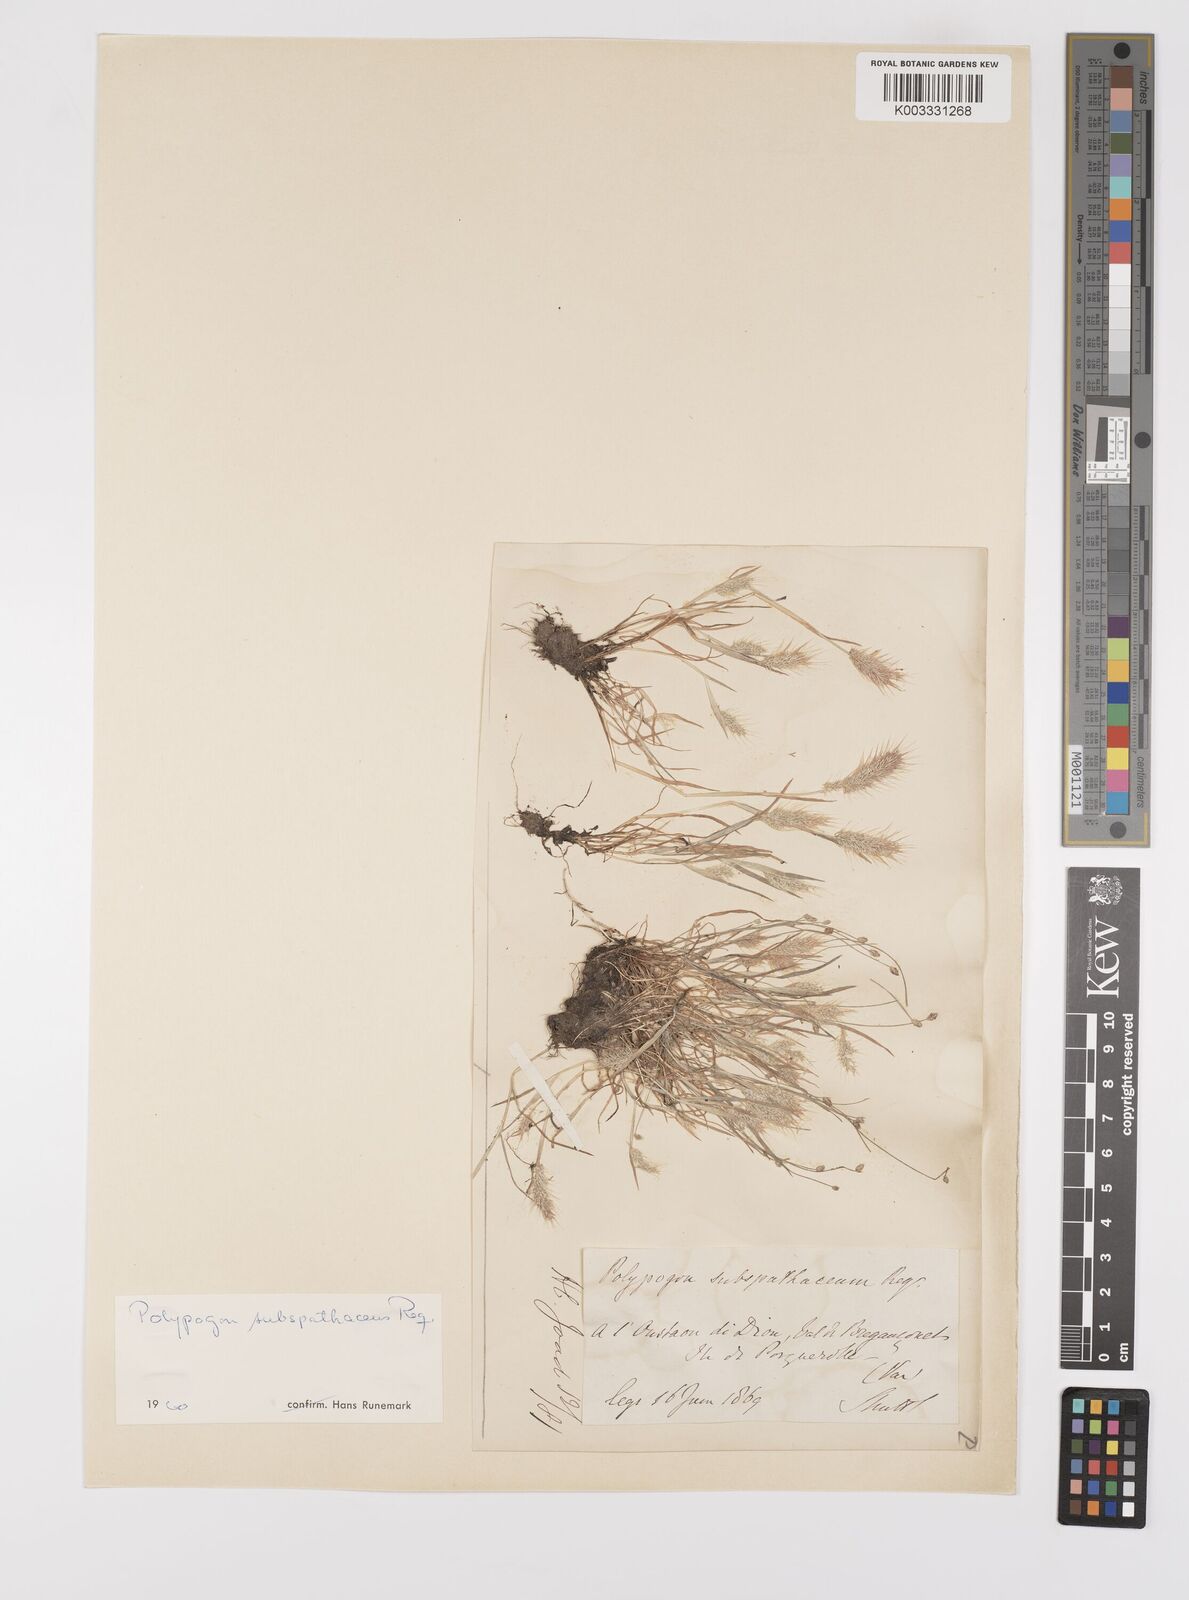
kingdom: Plantae
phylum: Tracheophyta
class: Liliopsida
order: Poales
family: Poaceae
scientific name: Poaceae
